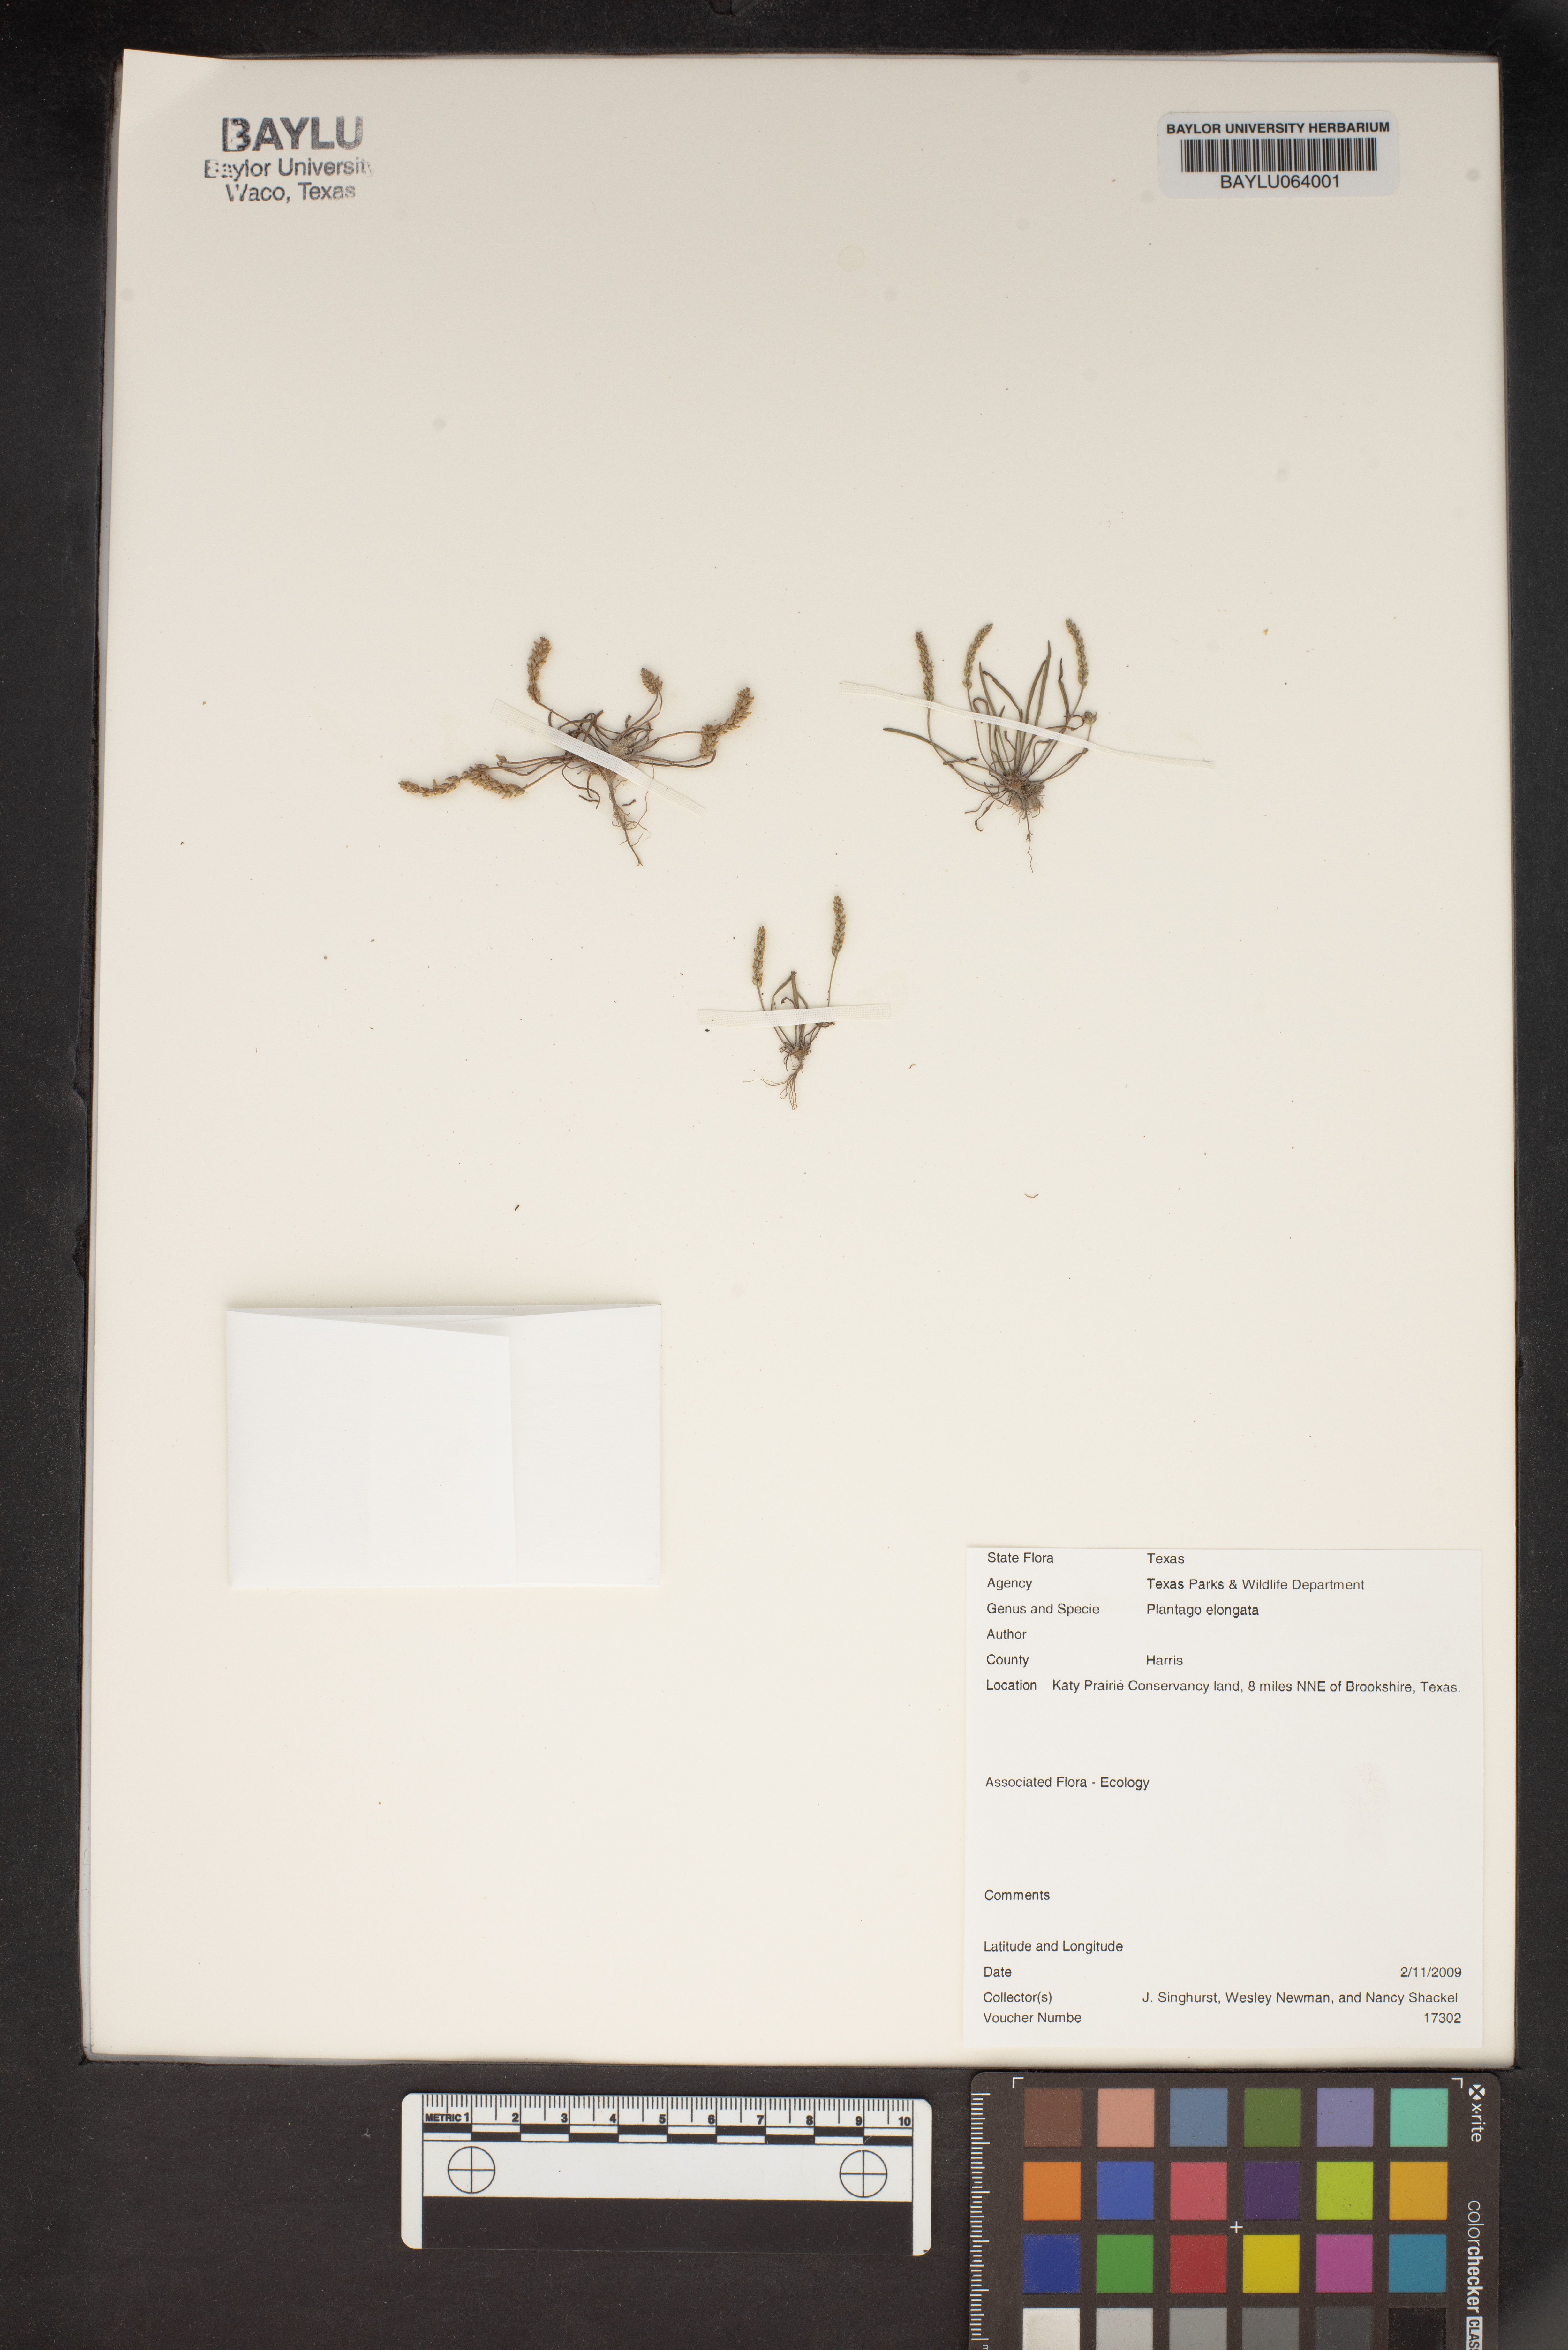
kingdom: Plantae
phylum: Tracheophyta
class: Magnoliopsida
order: Lamiales
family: Plantaginaceae
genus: Plantago
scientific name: Plantago elongata
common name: Linear-leaved plantain
